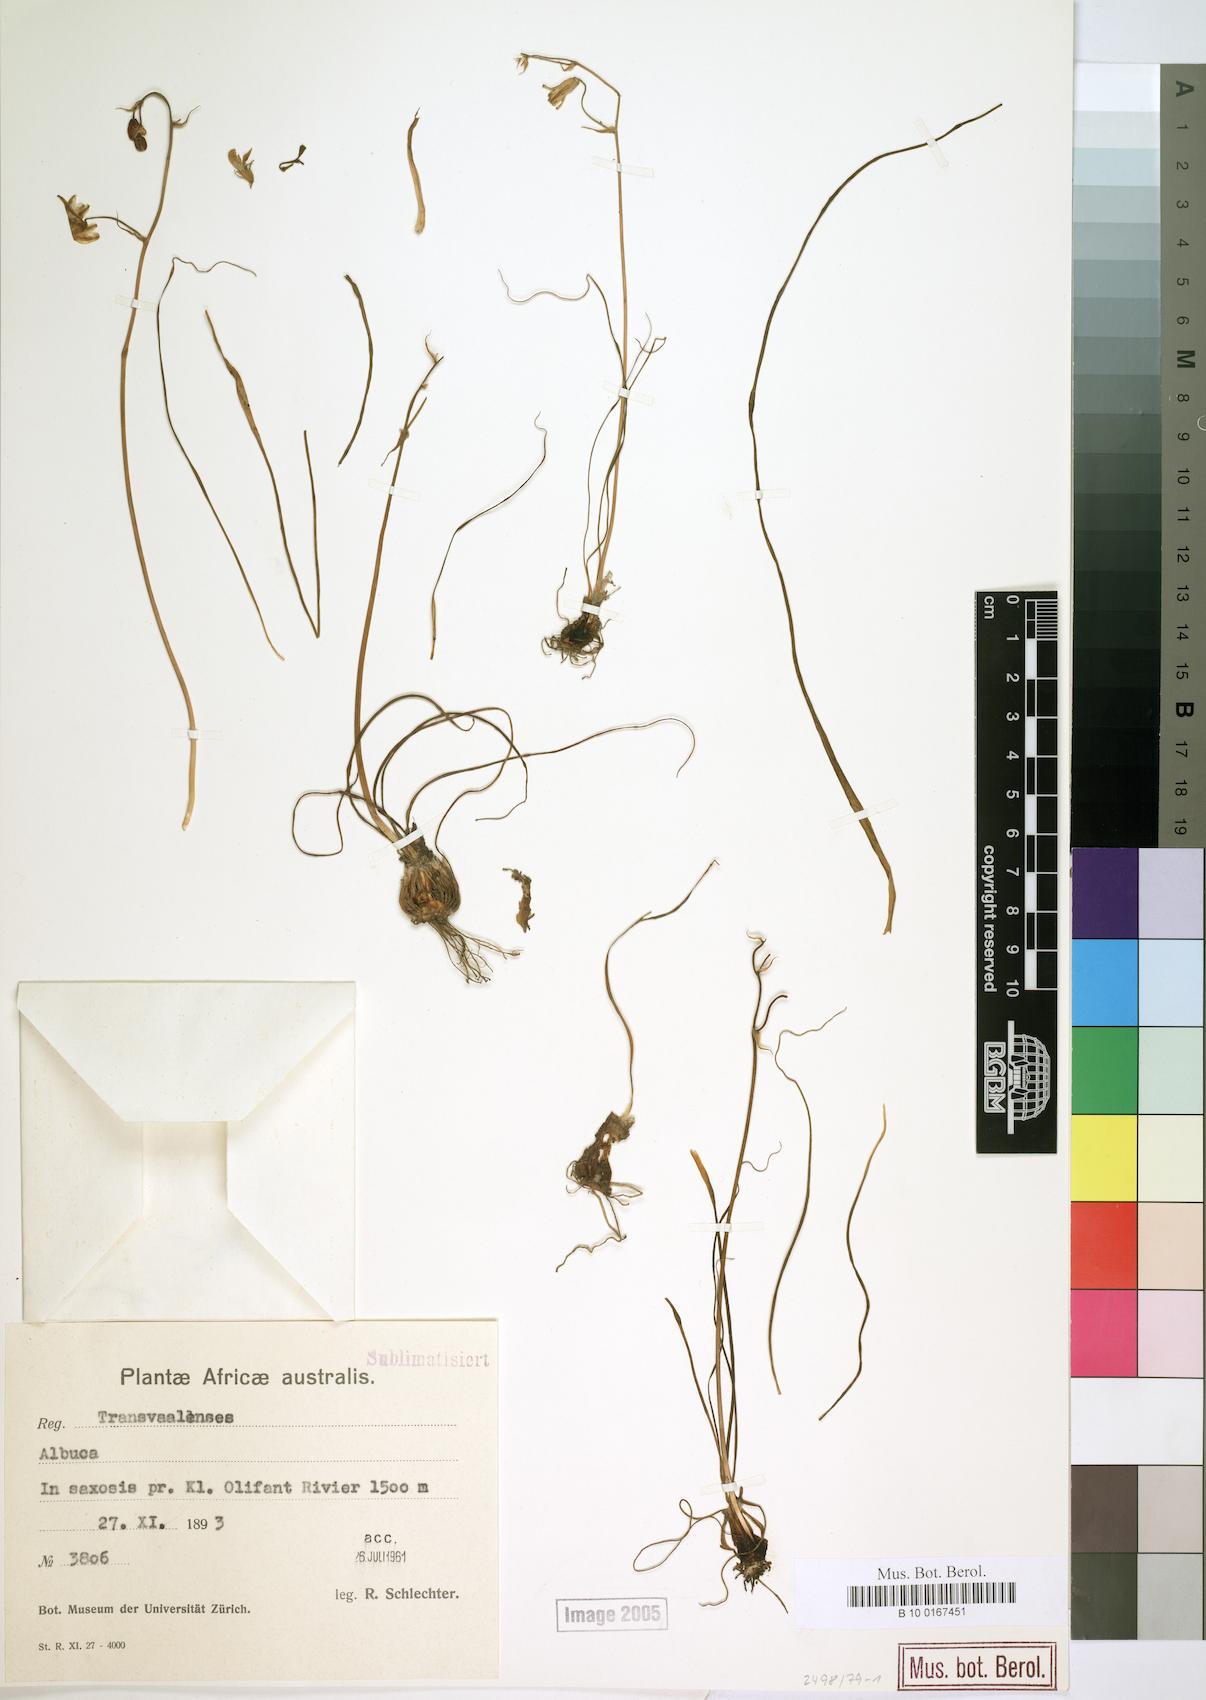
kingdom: Plantae
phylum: Tracheophyta
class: Liliopsida
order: Asparagales
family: Asparagaceae
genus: Albuca
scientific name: Albuca
